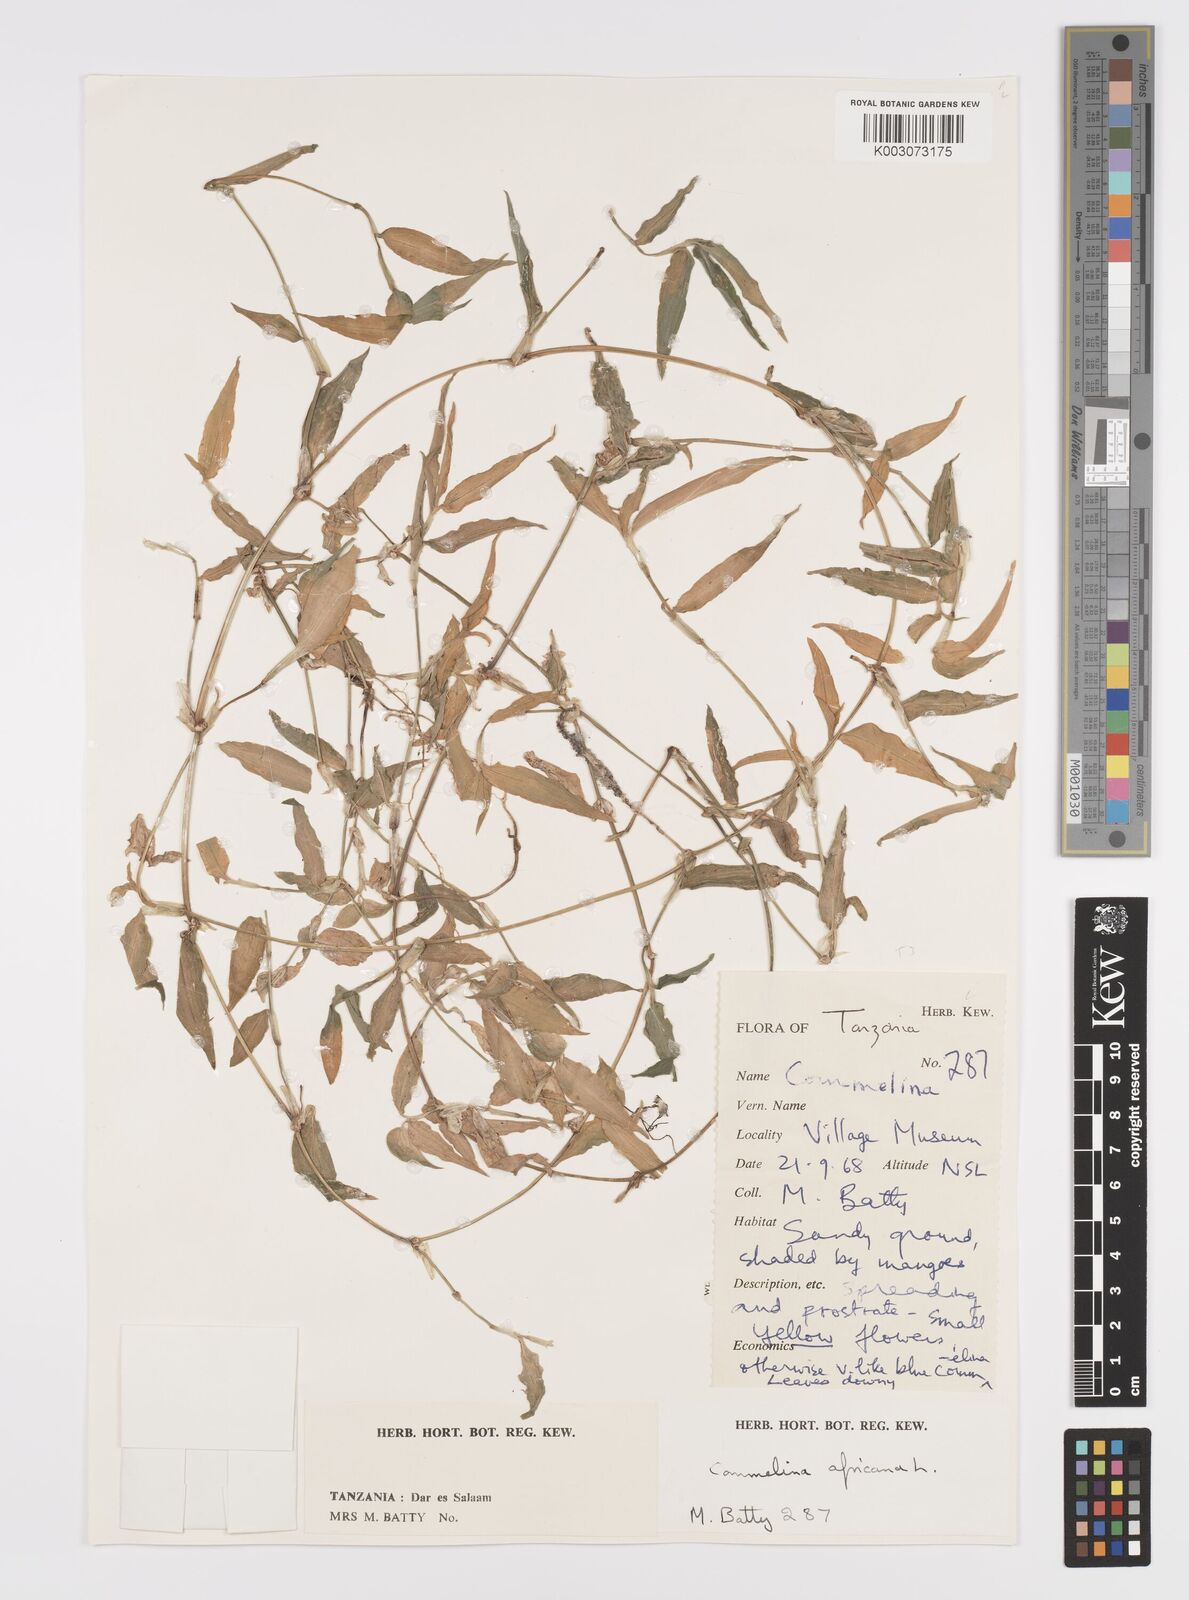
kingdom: Plantae
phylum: Tracheophyta
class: Liliopsida
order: Commelinales
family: Commelinaceae
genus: Commelina
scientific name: Commelina africana
